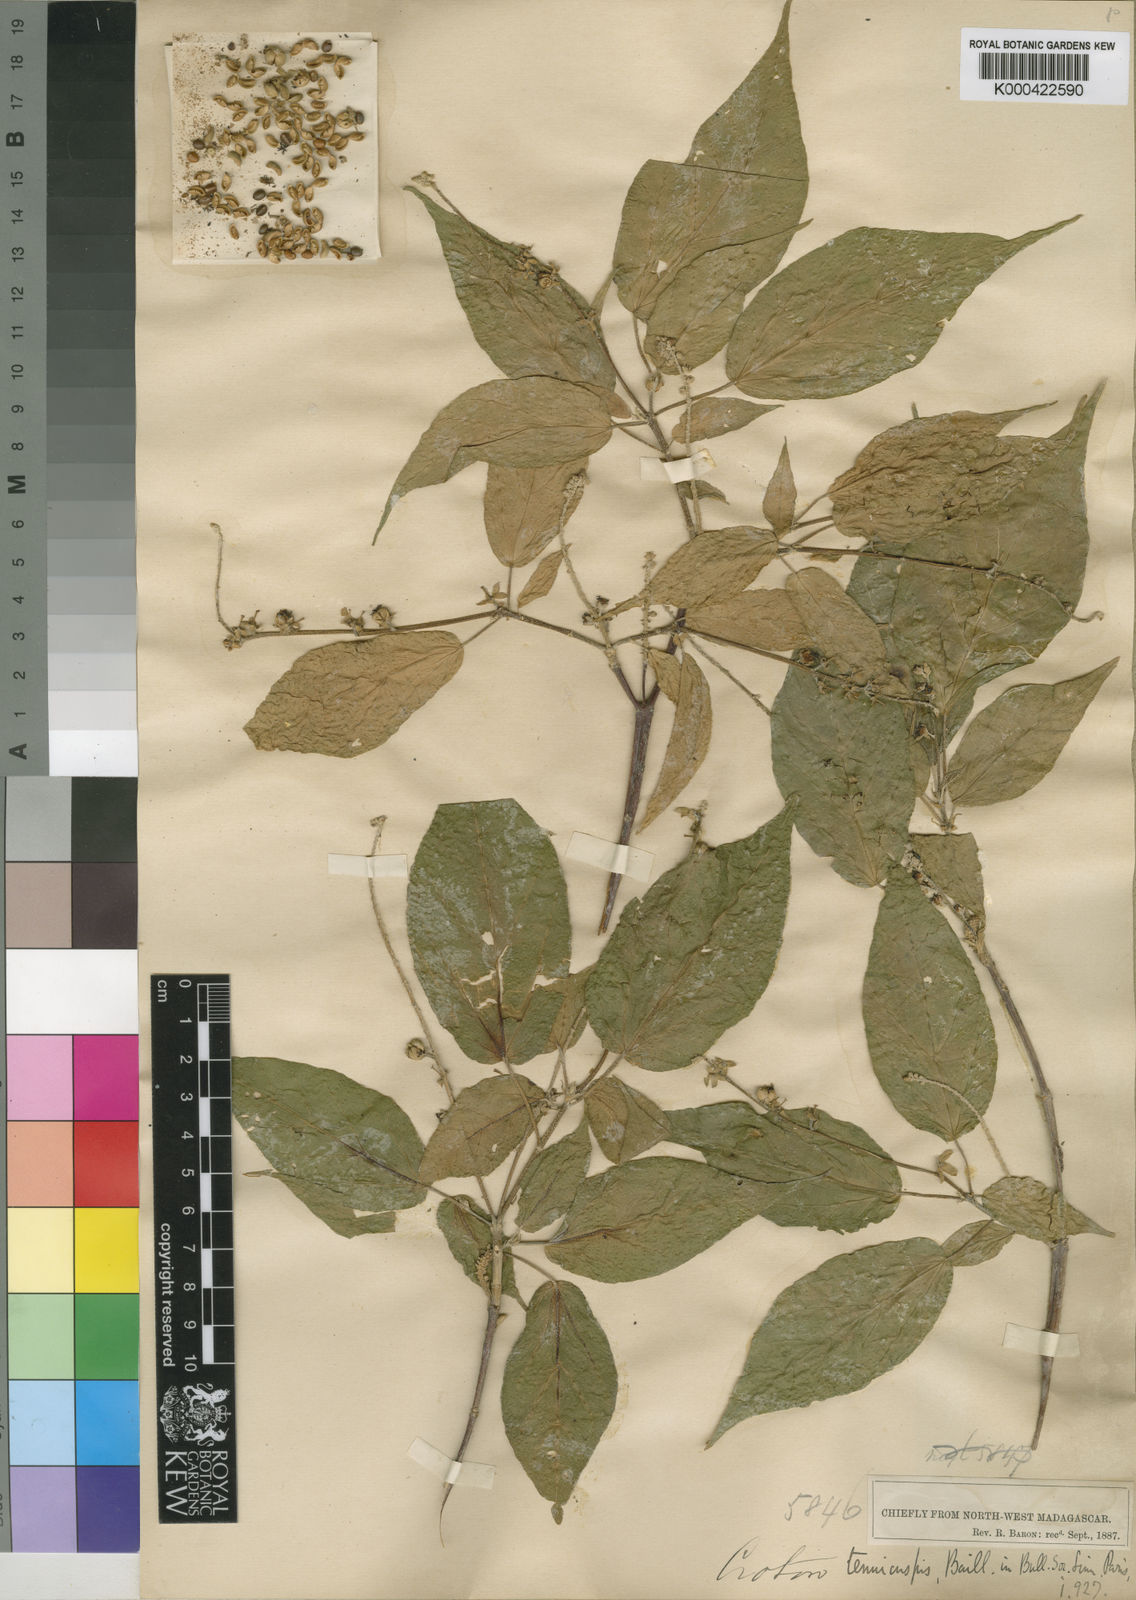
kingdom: Plantae
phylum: Tracheophyta
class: Magnoliopsida
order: Malpighiales
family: Euphorbiaceae
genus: Croton
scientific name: Croton adenophorus
